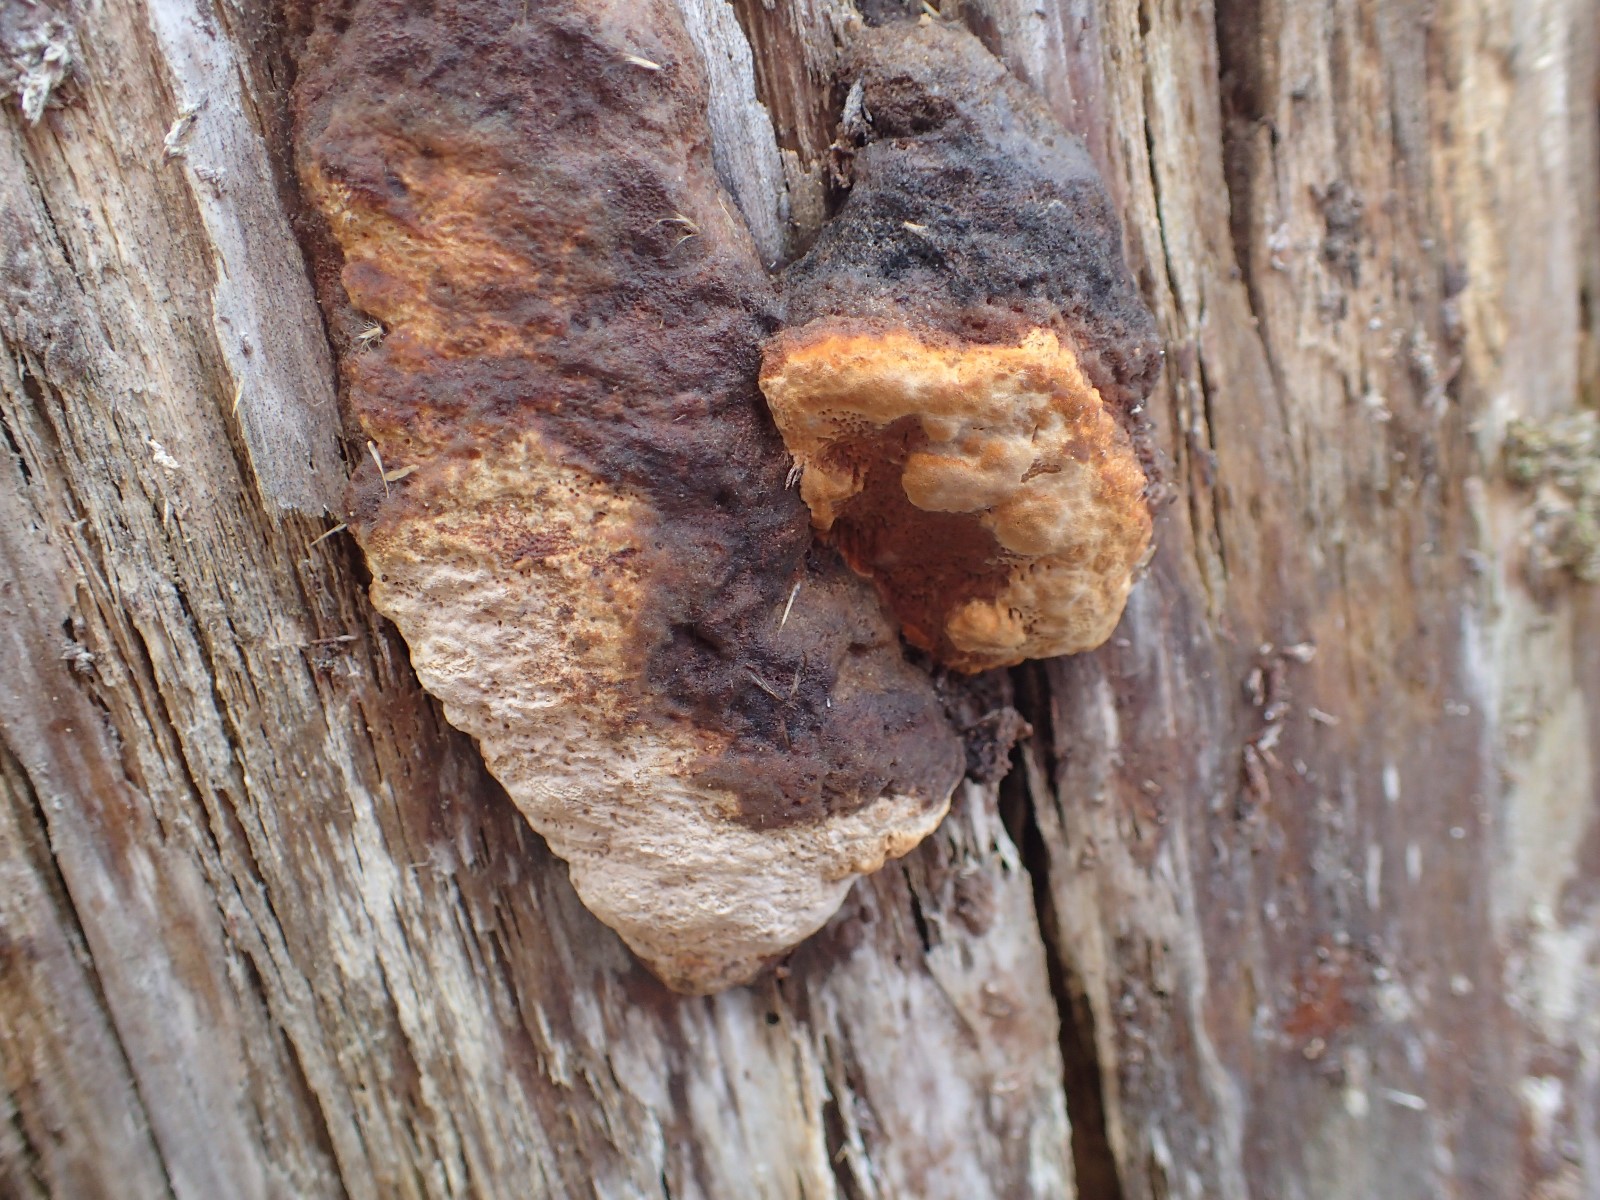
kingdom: Fungi
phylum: Basidiomycota
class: Agaricomycetes
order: Gloeophyllales
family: Gloeophyllaceae
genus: Gloeophyllum
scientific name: Gloeophyllum odoratum
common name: duftende korkhat
